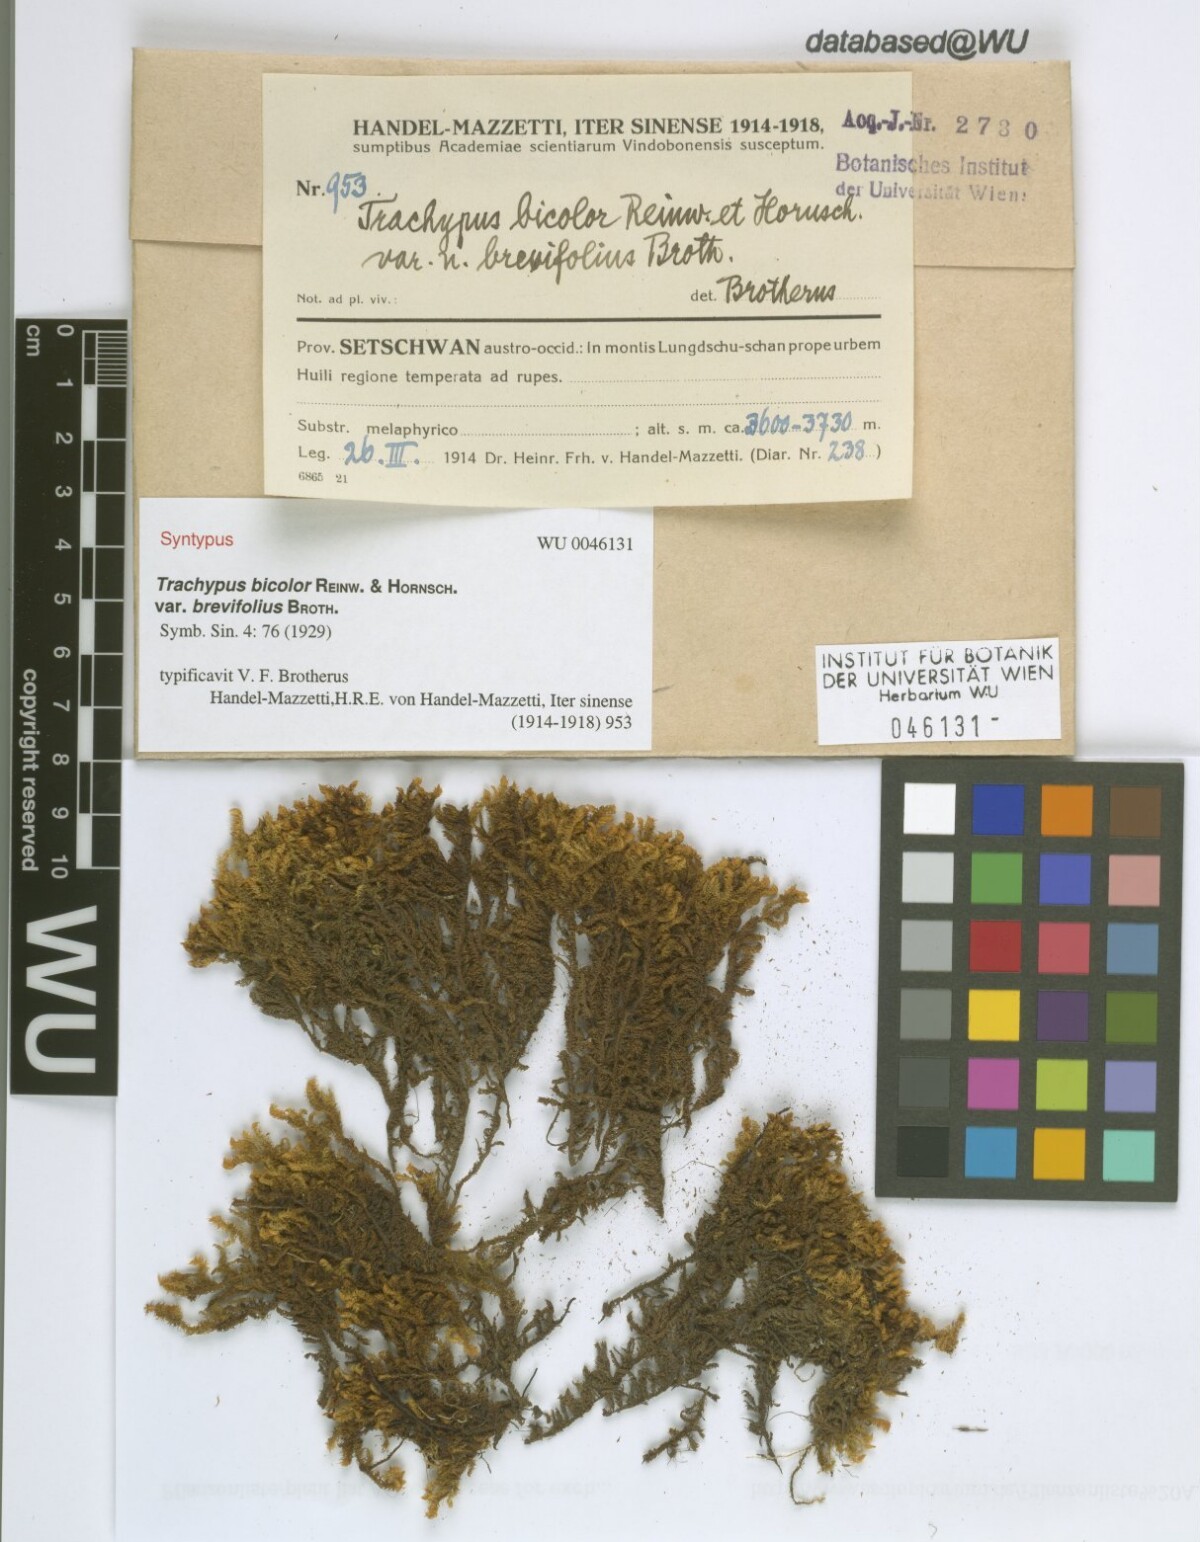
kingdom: Plantae
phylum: Bryophyta
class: Bryopsida
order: Hypnales
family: Meteoriaceae
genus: Trachypus
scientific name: Trachypus bicolor
